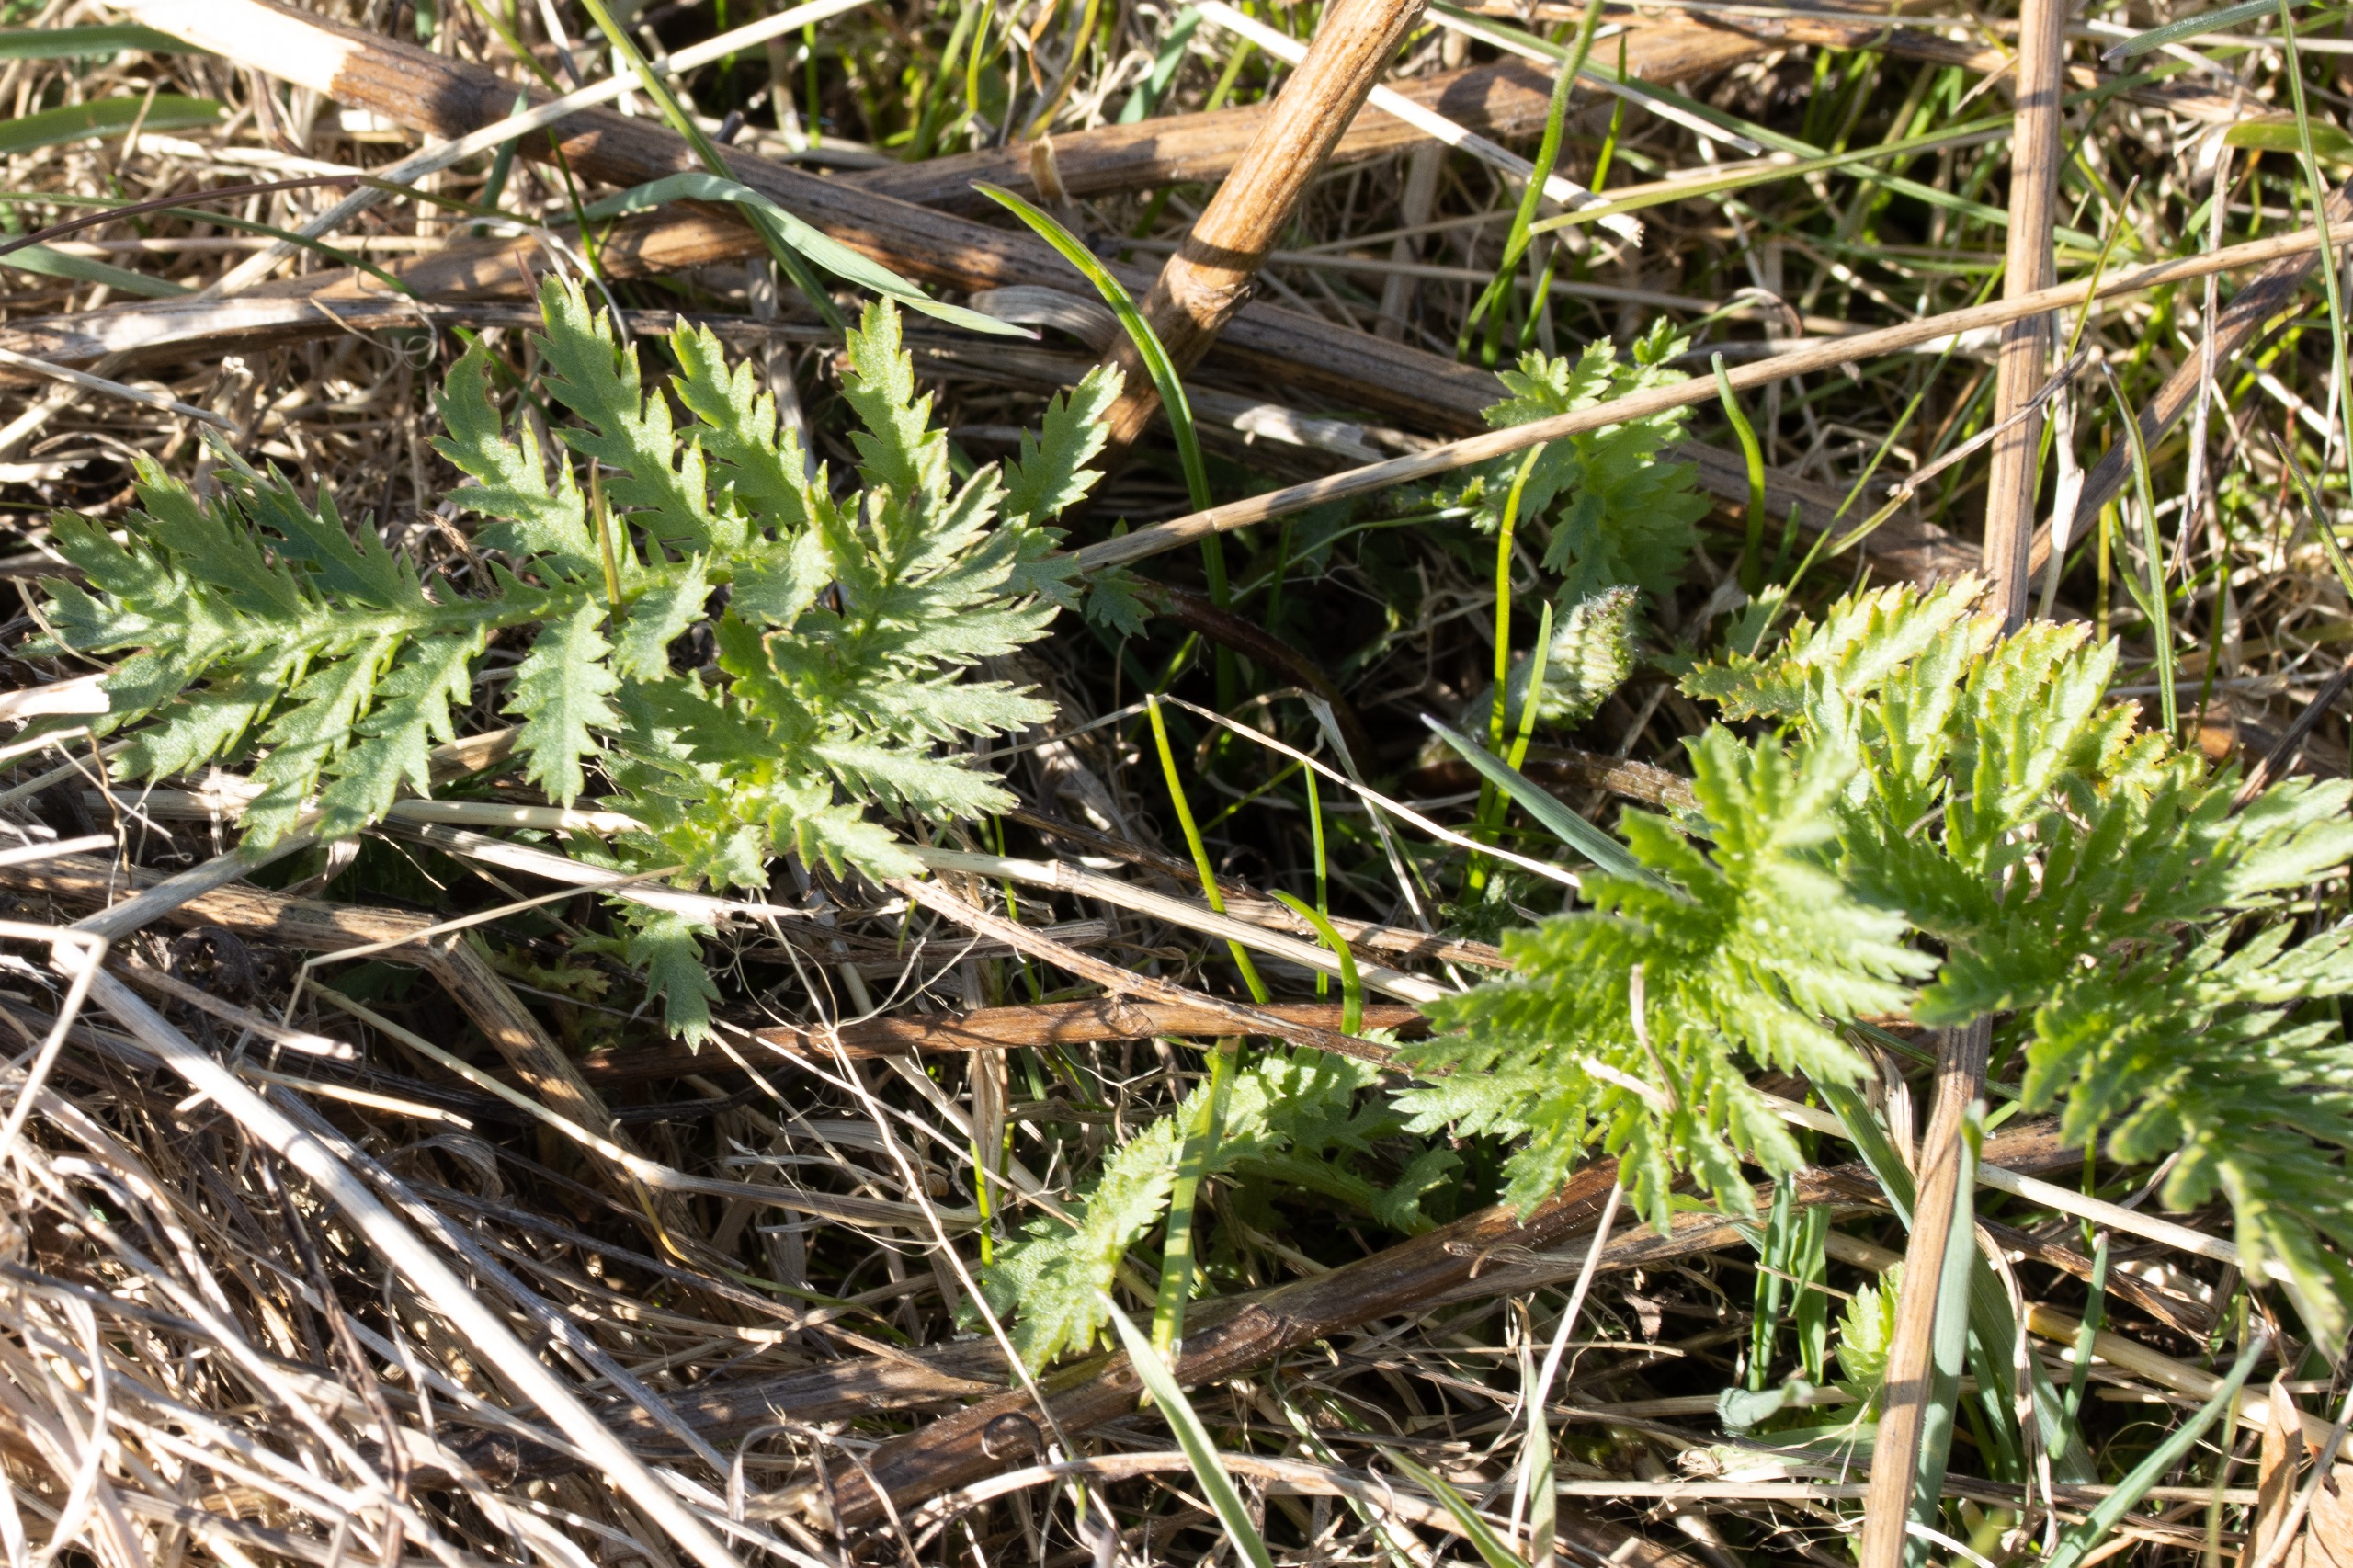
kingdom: Plantae
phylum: Tracheophyta
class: Magnoliopsida
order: Asterales
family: Asteraceae
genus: Tanacetum
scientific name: Tanacetum vulgare
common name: Rejnfan
